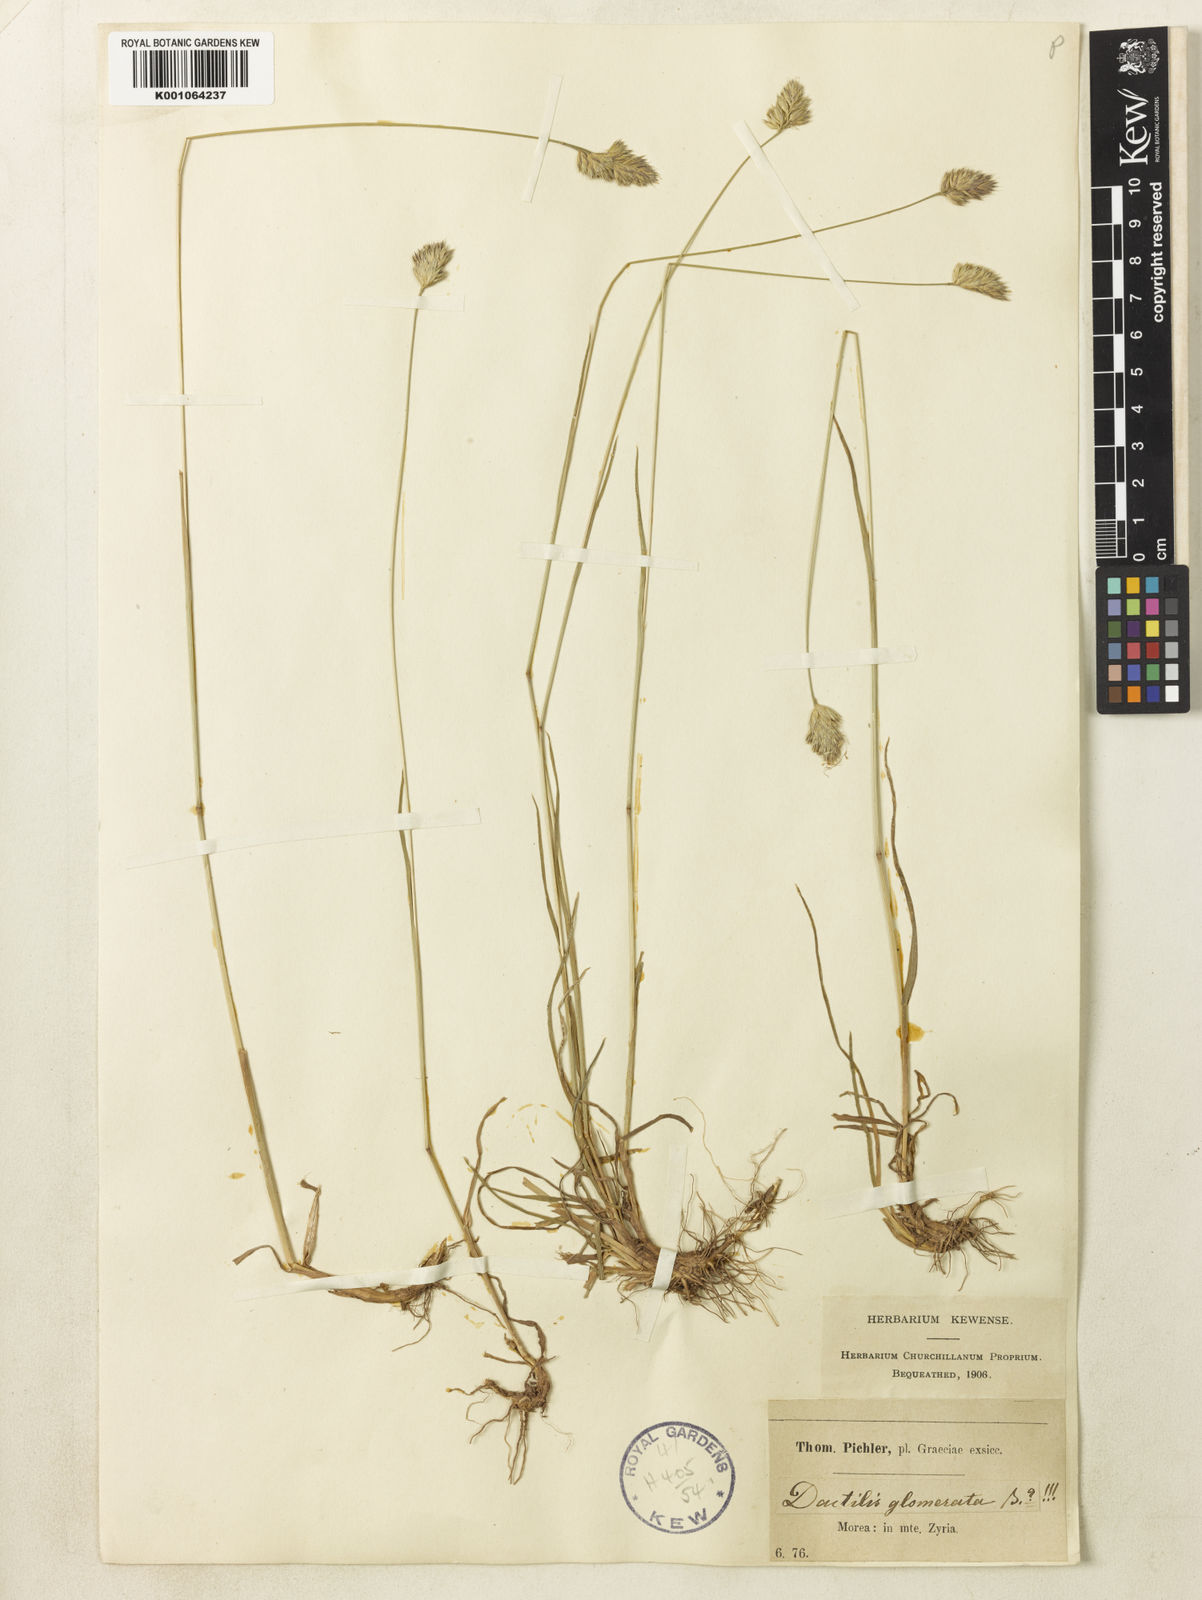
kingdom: Plantae
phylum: Tracheophyta
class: Liliopsida
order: Poales
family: Poaceae
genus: Dactylis
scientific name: Dactylis glomerata
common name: Orchardgrass
